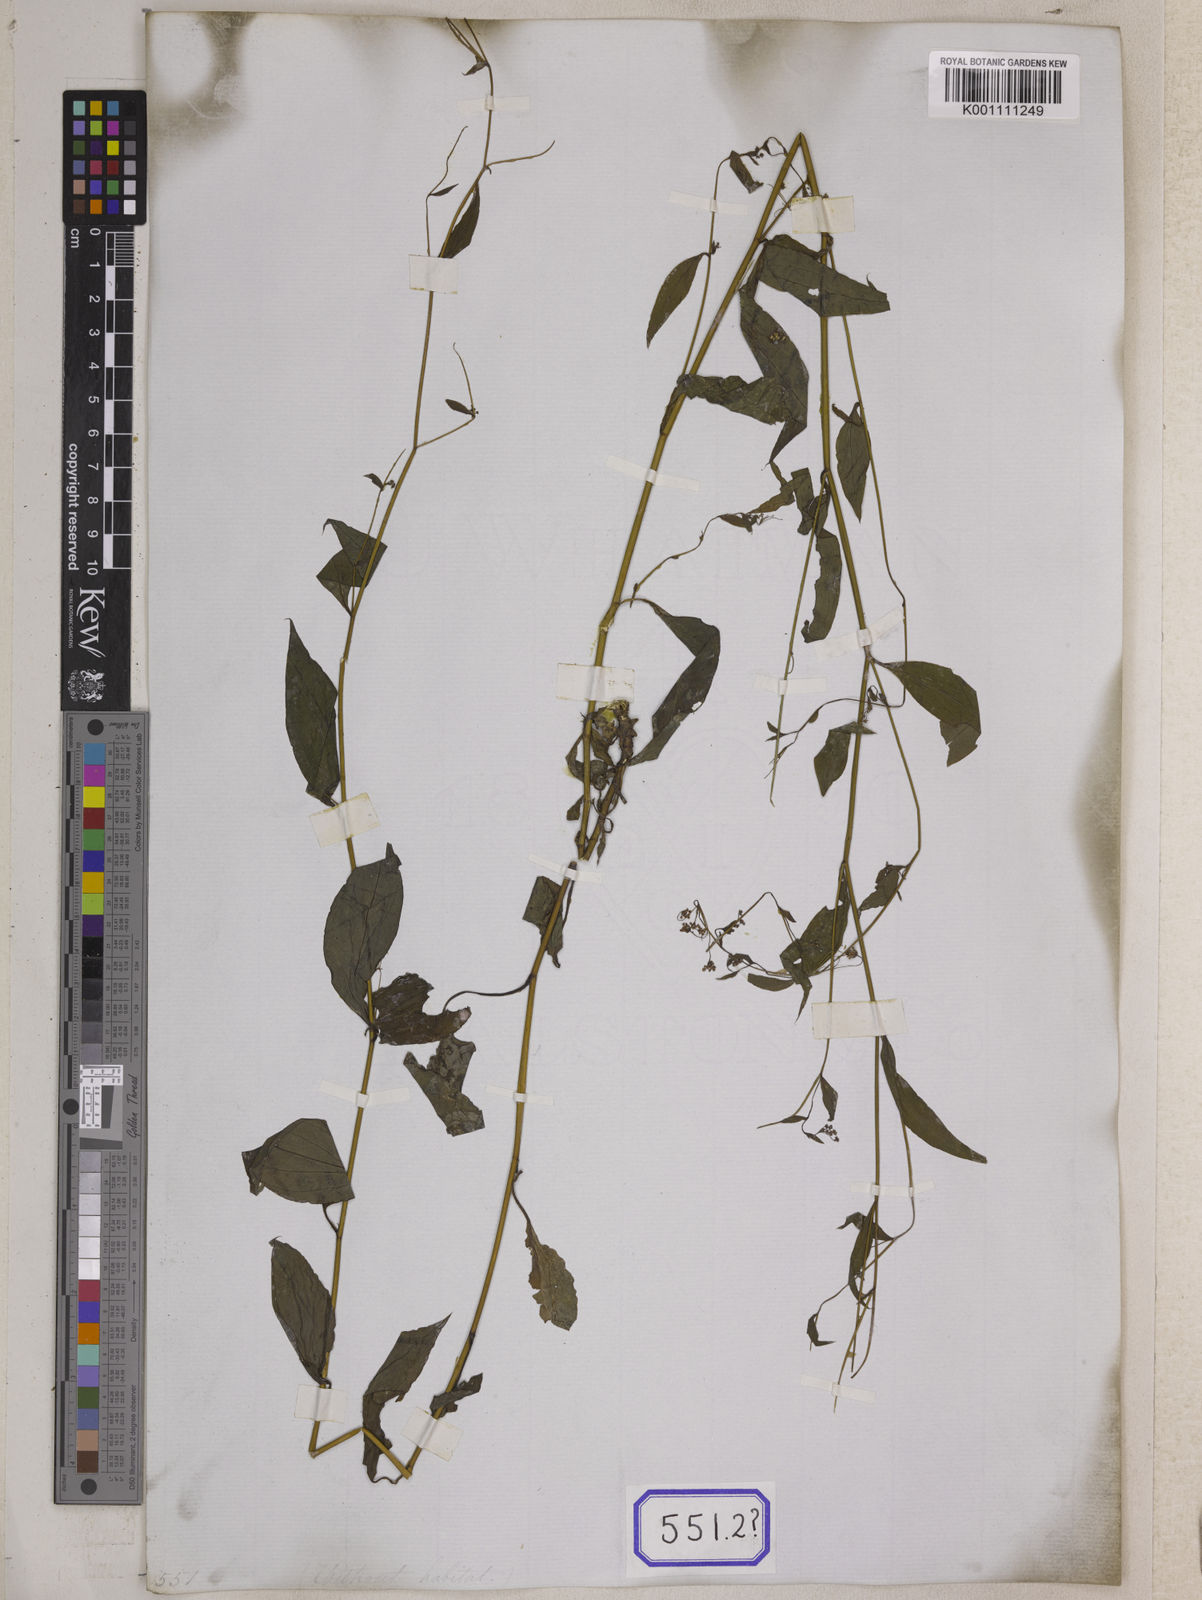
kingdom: Plantae
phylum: Tracheophyta
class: Magnoliopsida
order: Apiales
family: Apiaceae
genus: Bupleurum
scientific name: Bupleurum
